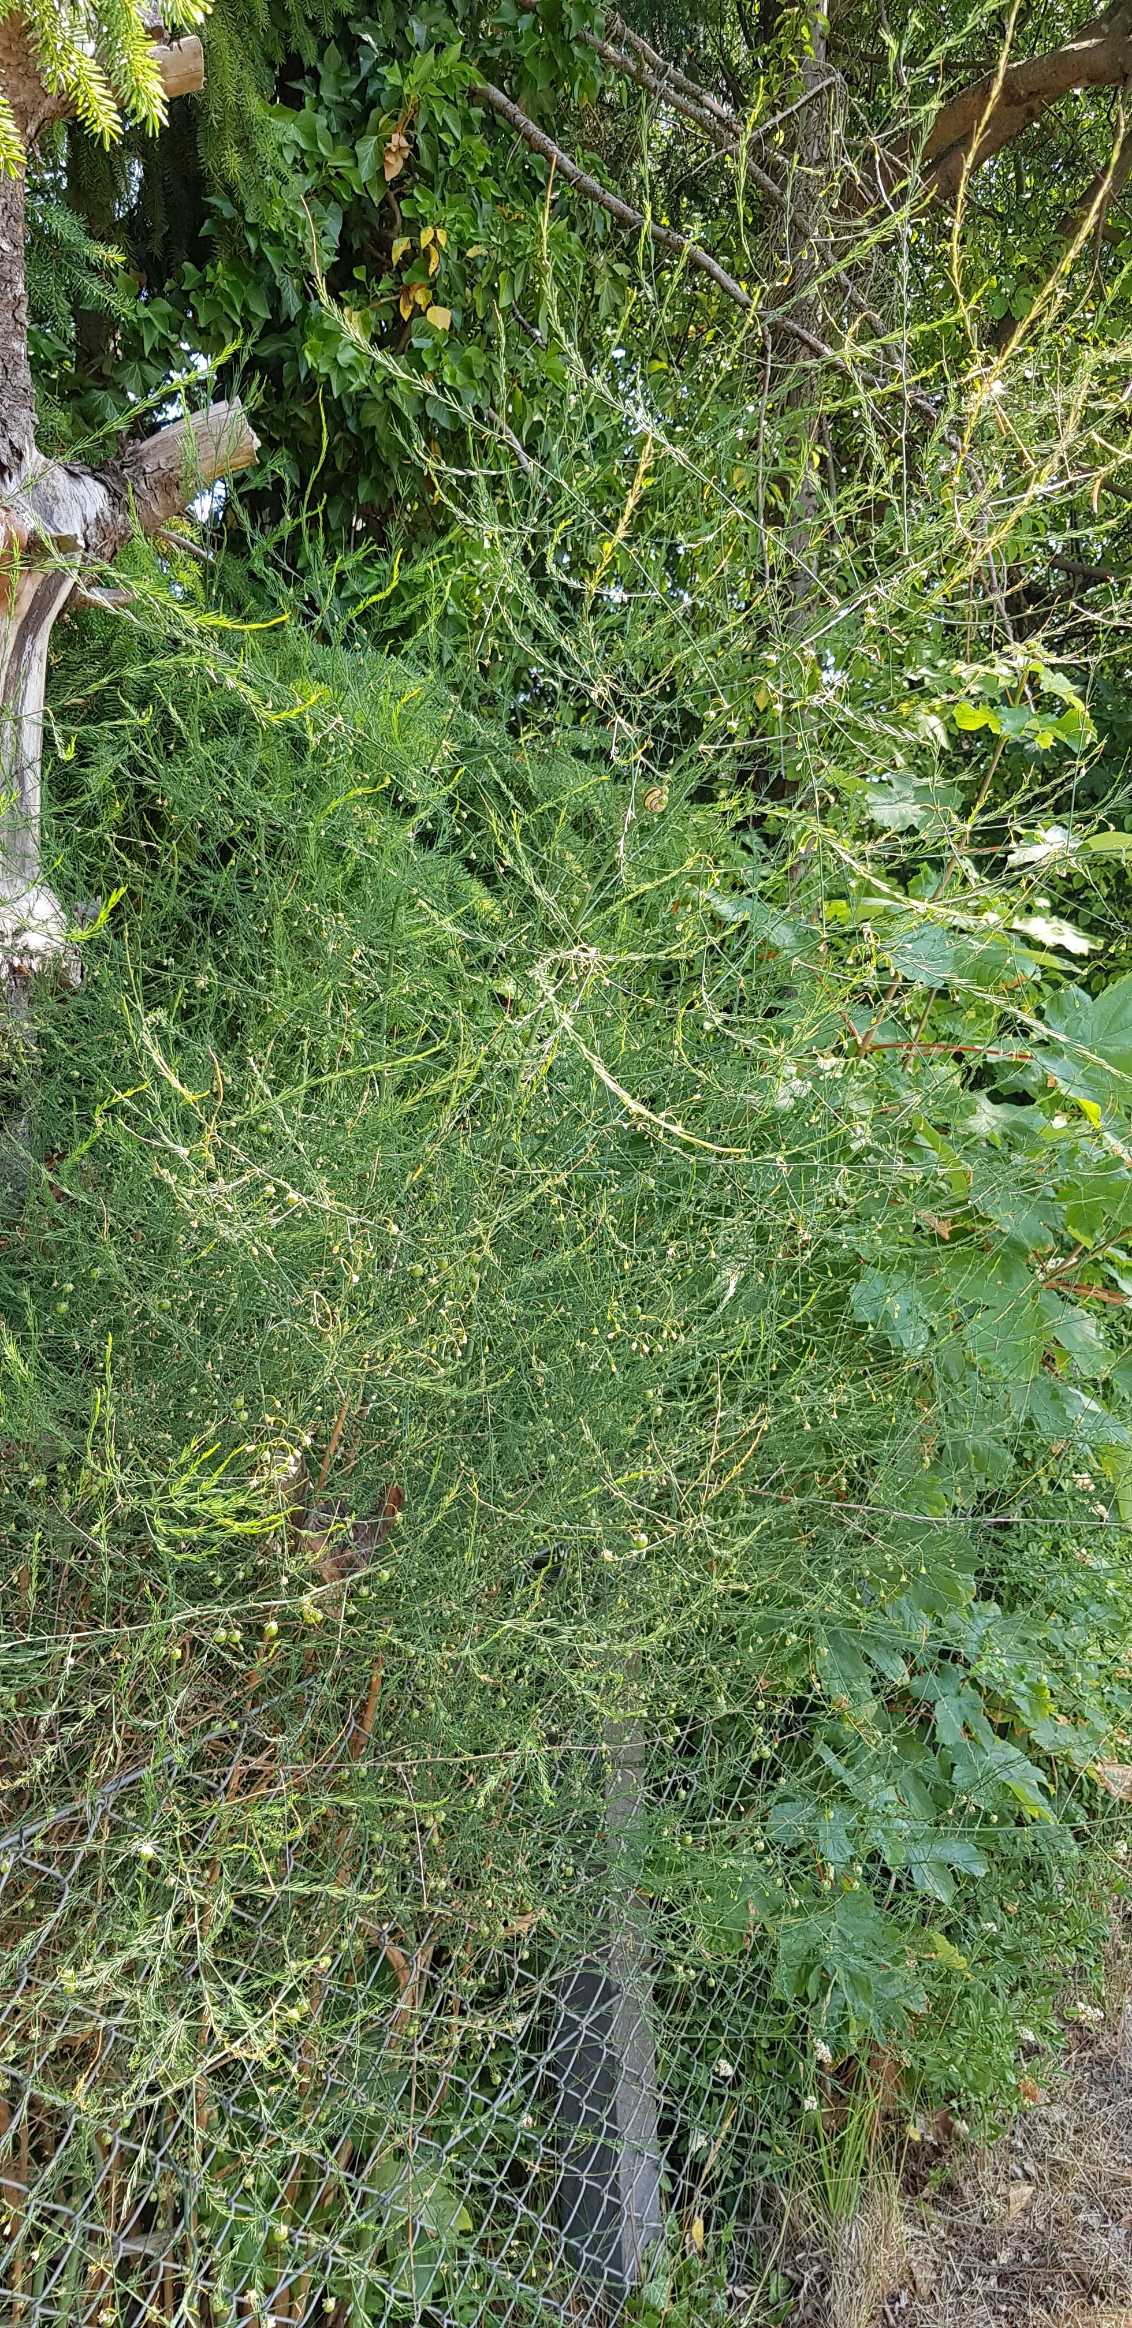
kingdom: Plantae
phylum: Tracheophyta
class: Liliopsida
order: Asparagales
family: Asparagaceae
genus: Asparagus
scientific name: Asparagus officinalis
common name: Asparges
